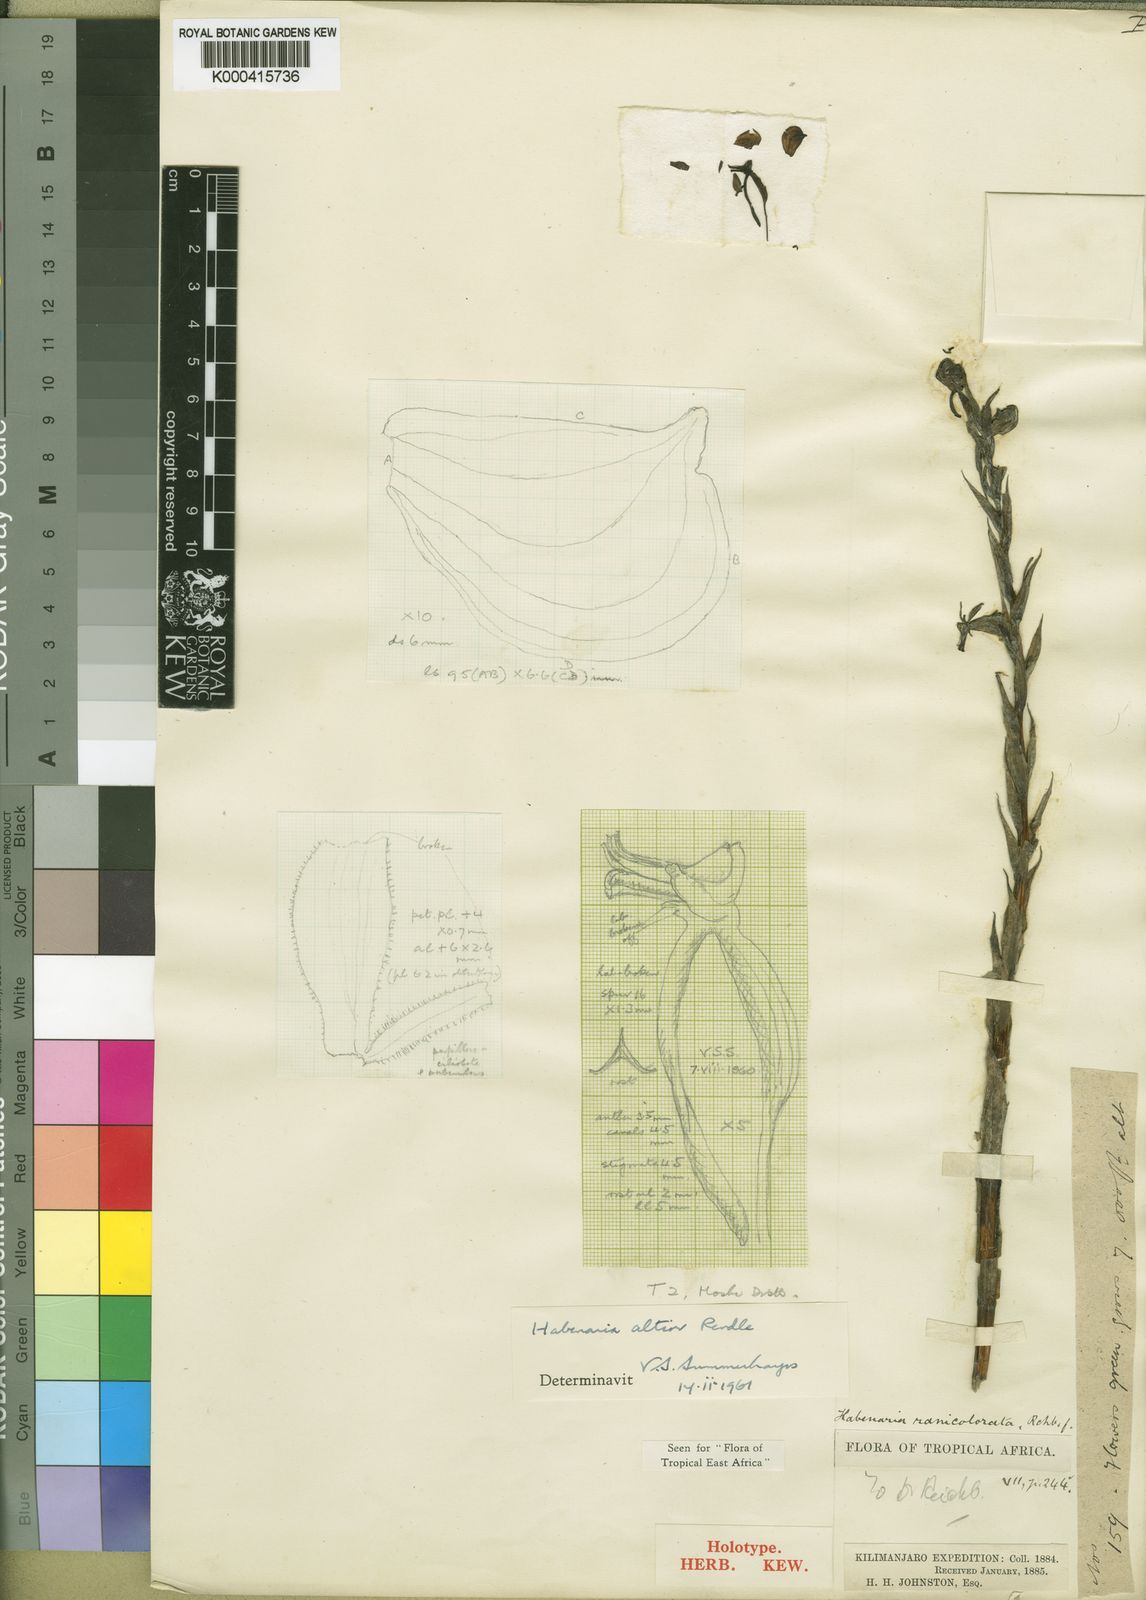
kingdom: Plantae
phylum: Tracheophyta
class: Liliopsida
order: Asparagales
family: Orchidaceae
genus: Habenaria
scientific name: Habenaria altior
